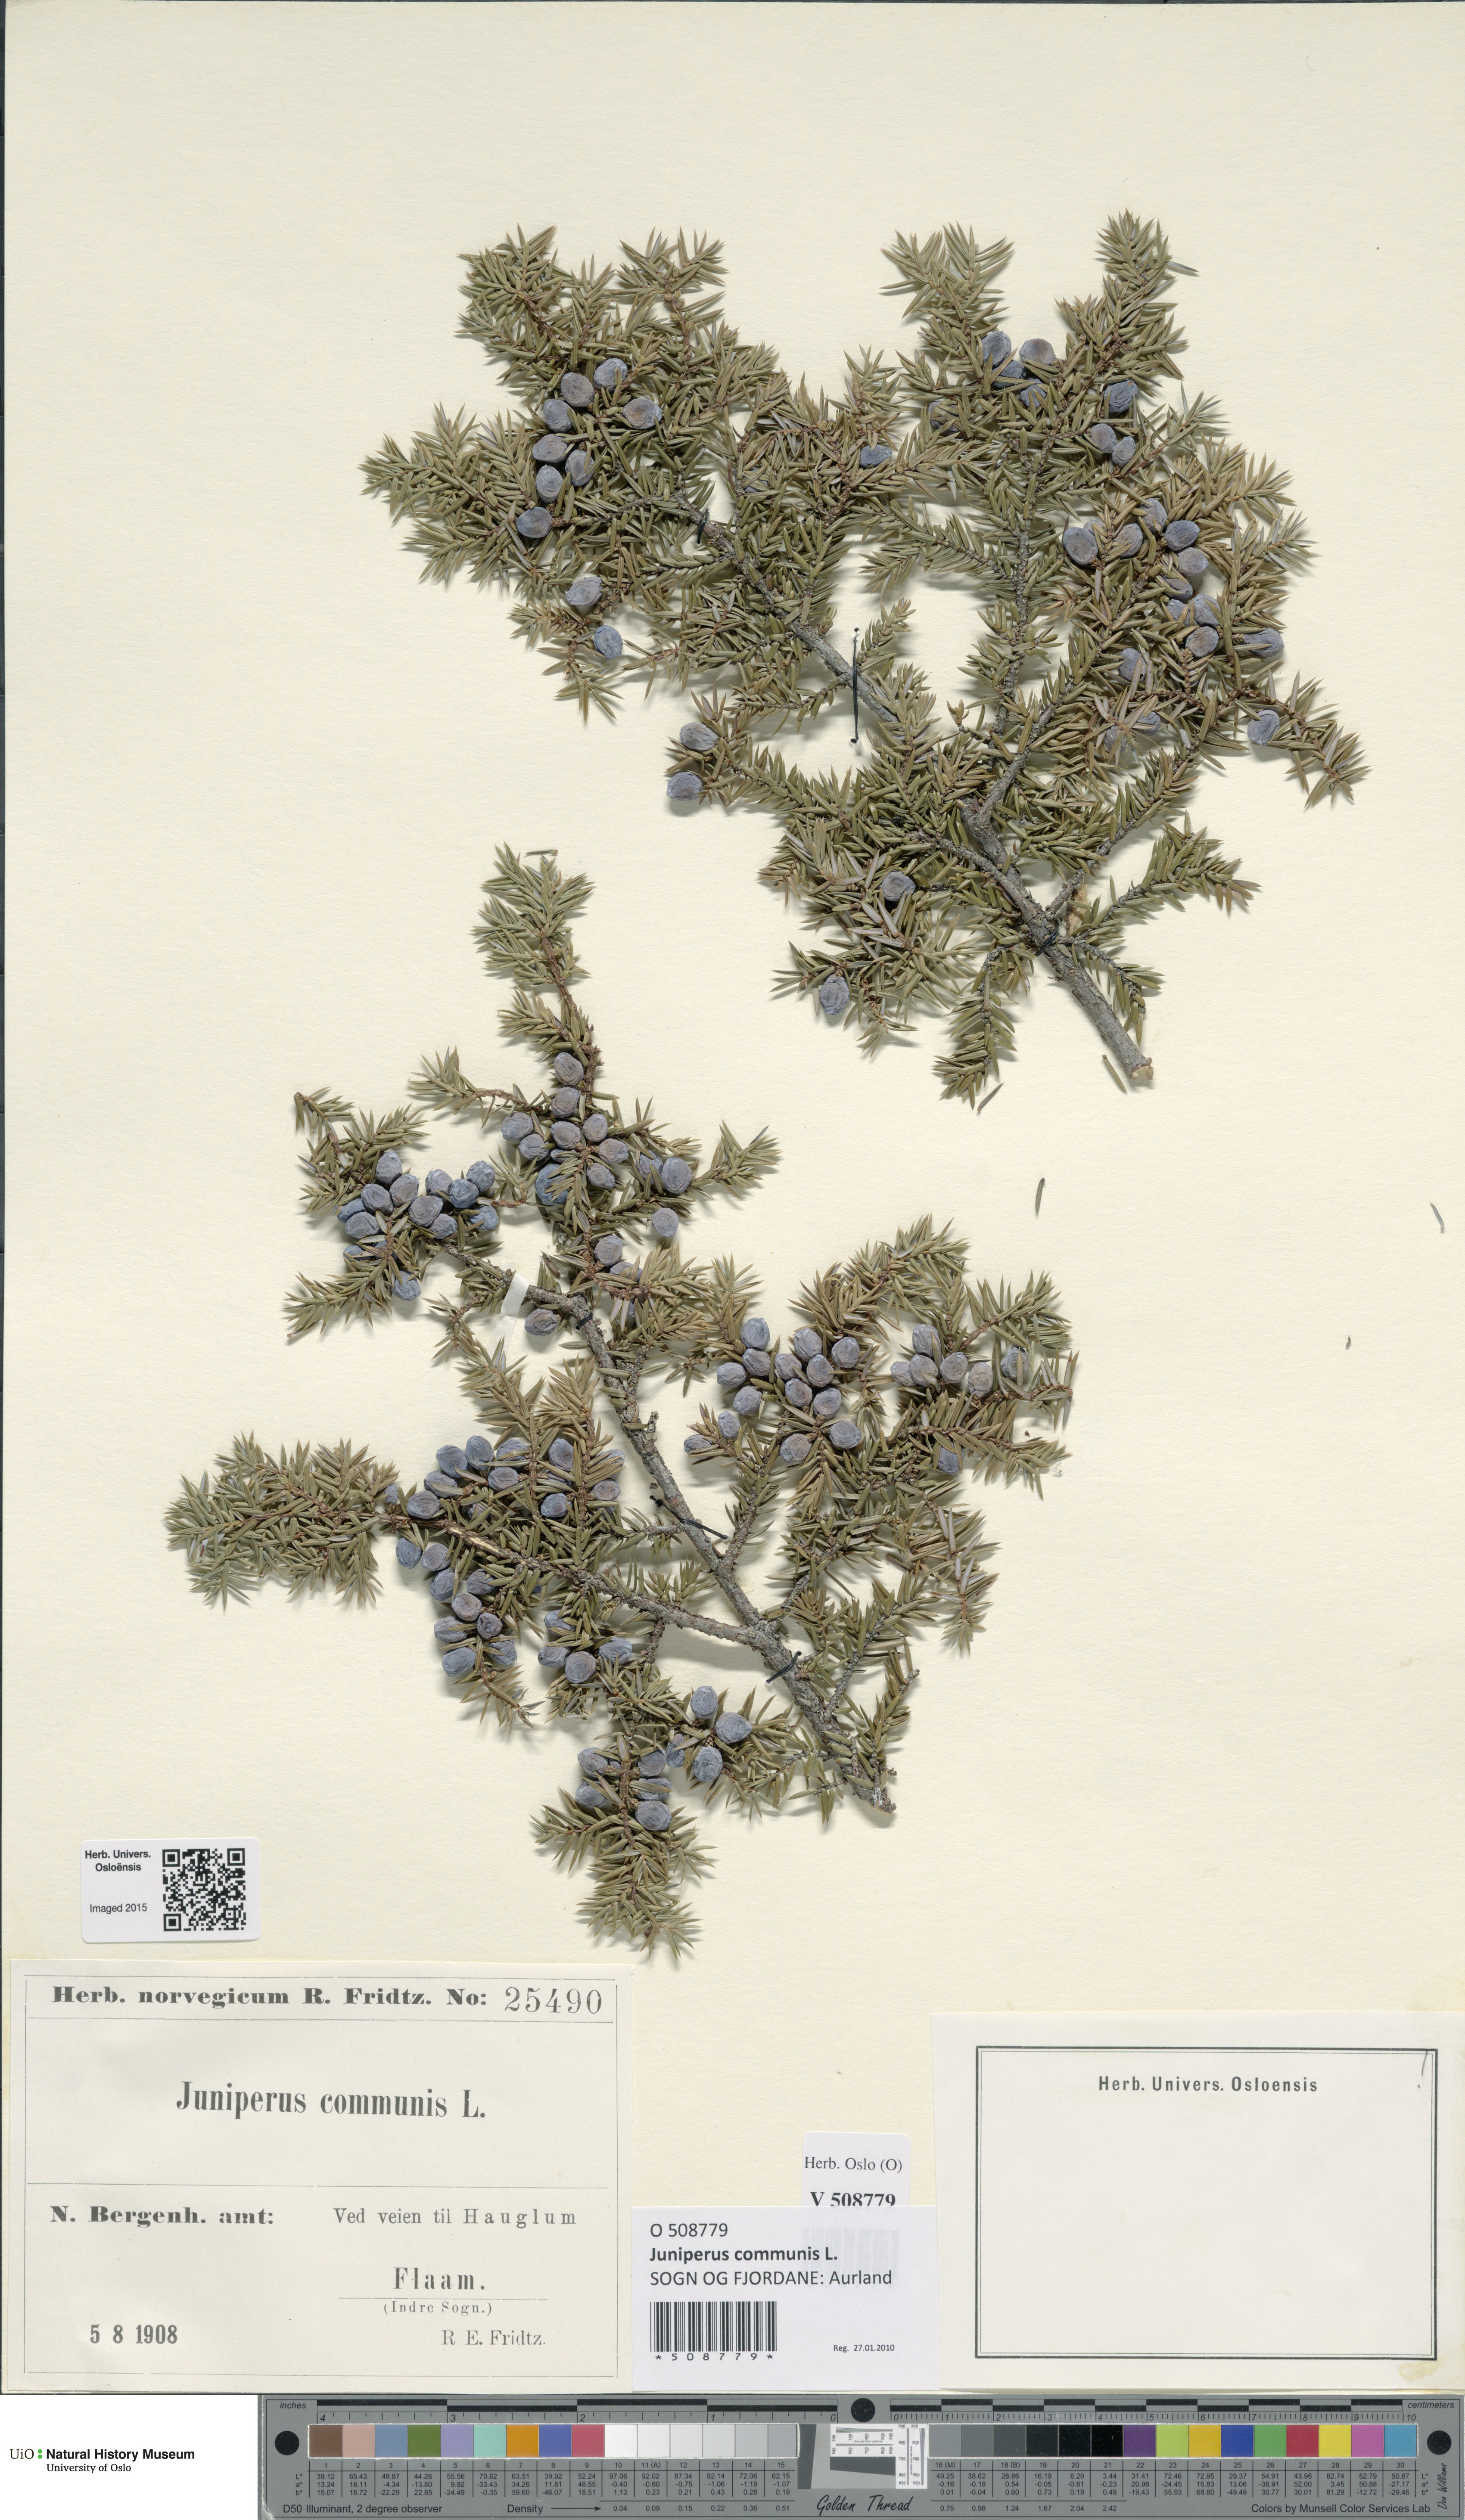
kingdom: Plantae
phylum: Tracheophyta
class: Pinopsida
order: Pinales
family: Cupressaceae
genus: Juniperus
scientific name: Juniperus communis
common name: Common juniper
